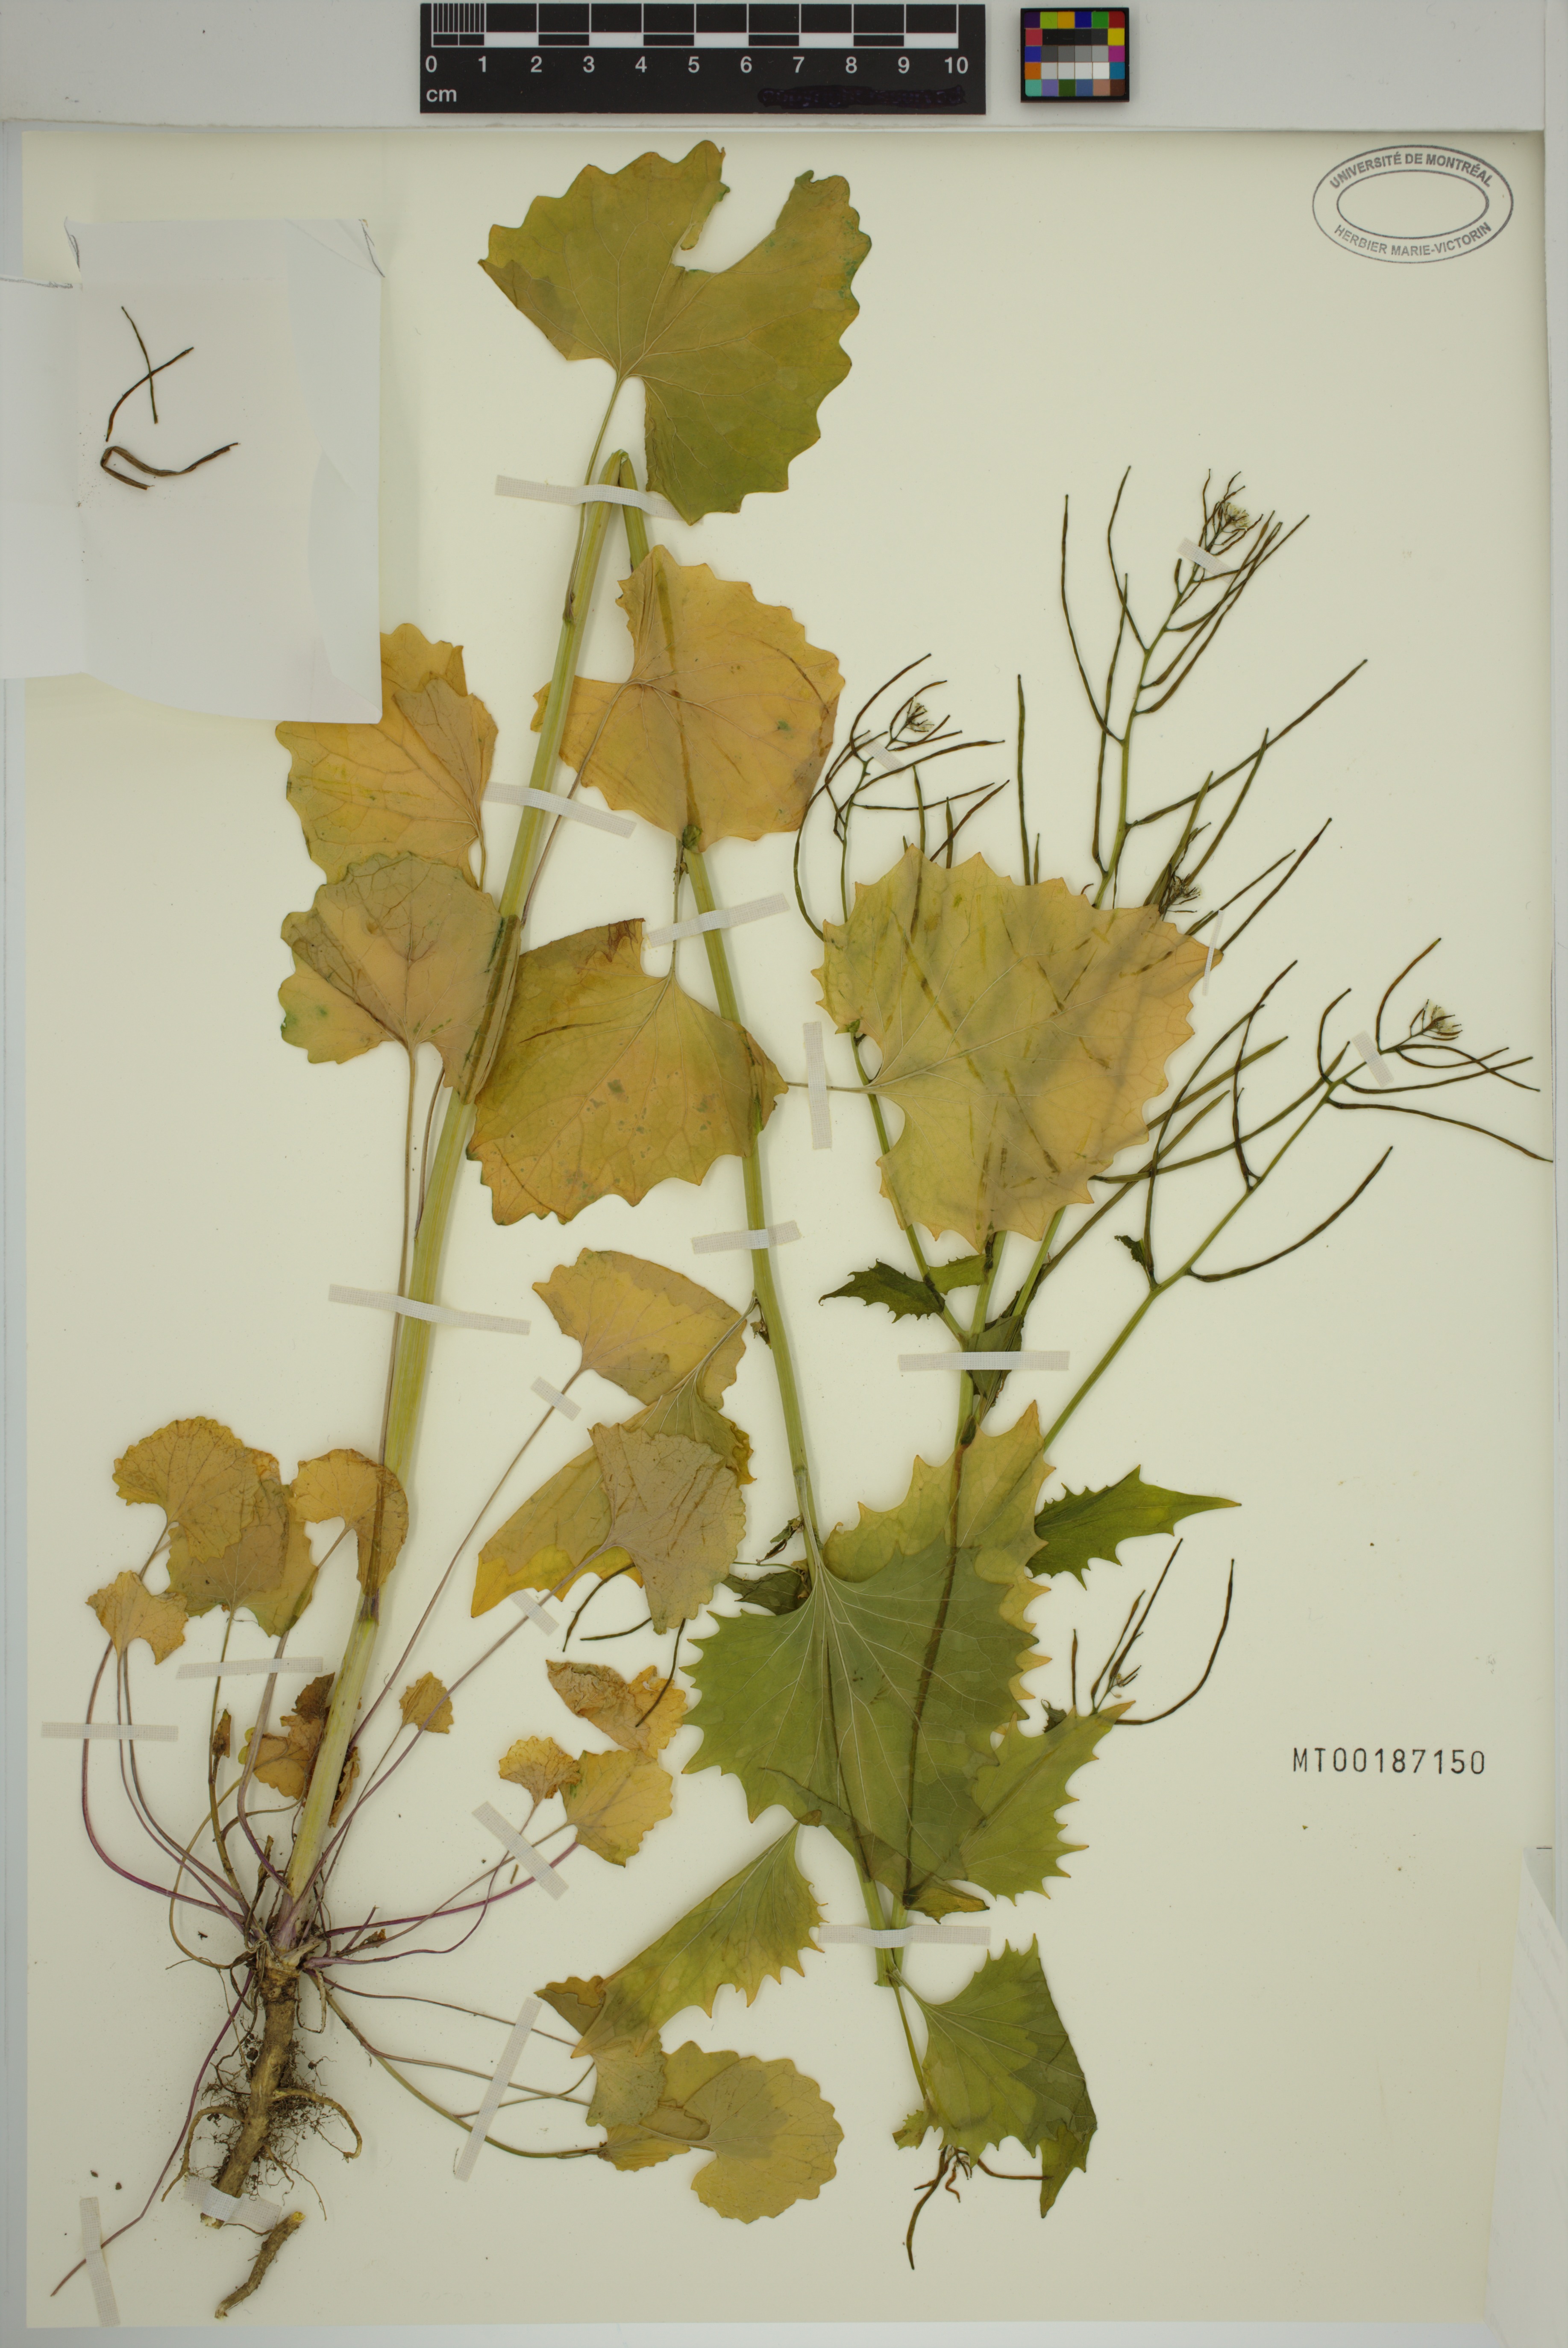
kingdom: Plantae
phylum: Tracheophyta
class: Magnoliopsida
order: Brassicales
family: Brassicaceae
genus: Alliaria
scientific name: Alliaria petiolata
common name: Garlic mustard
